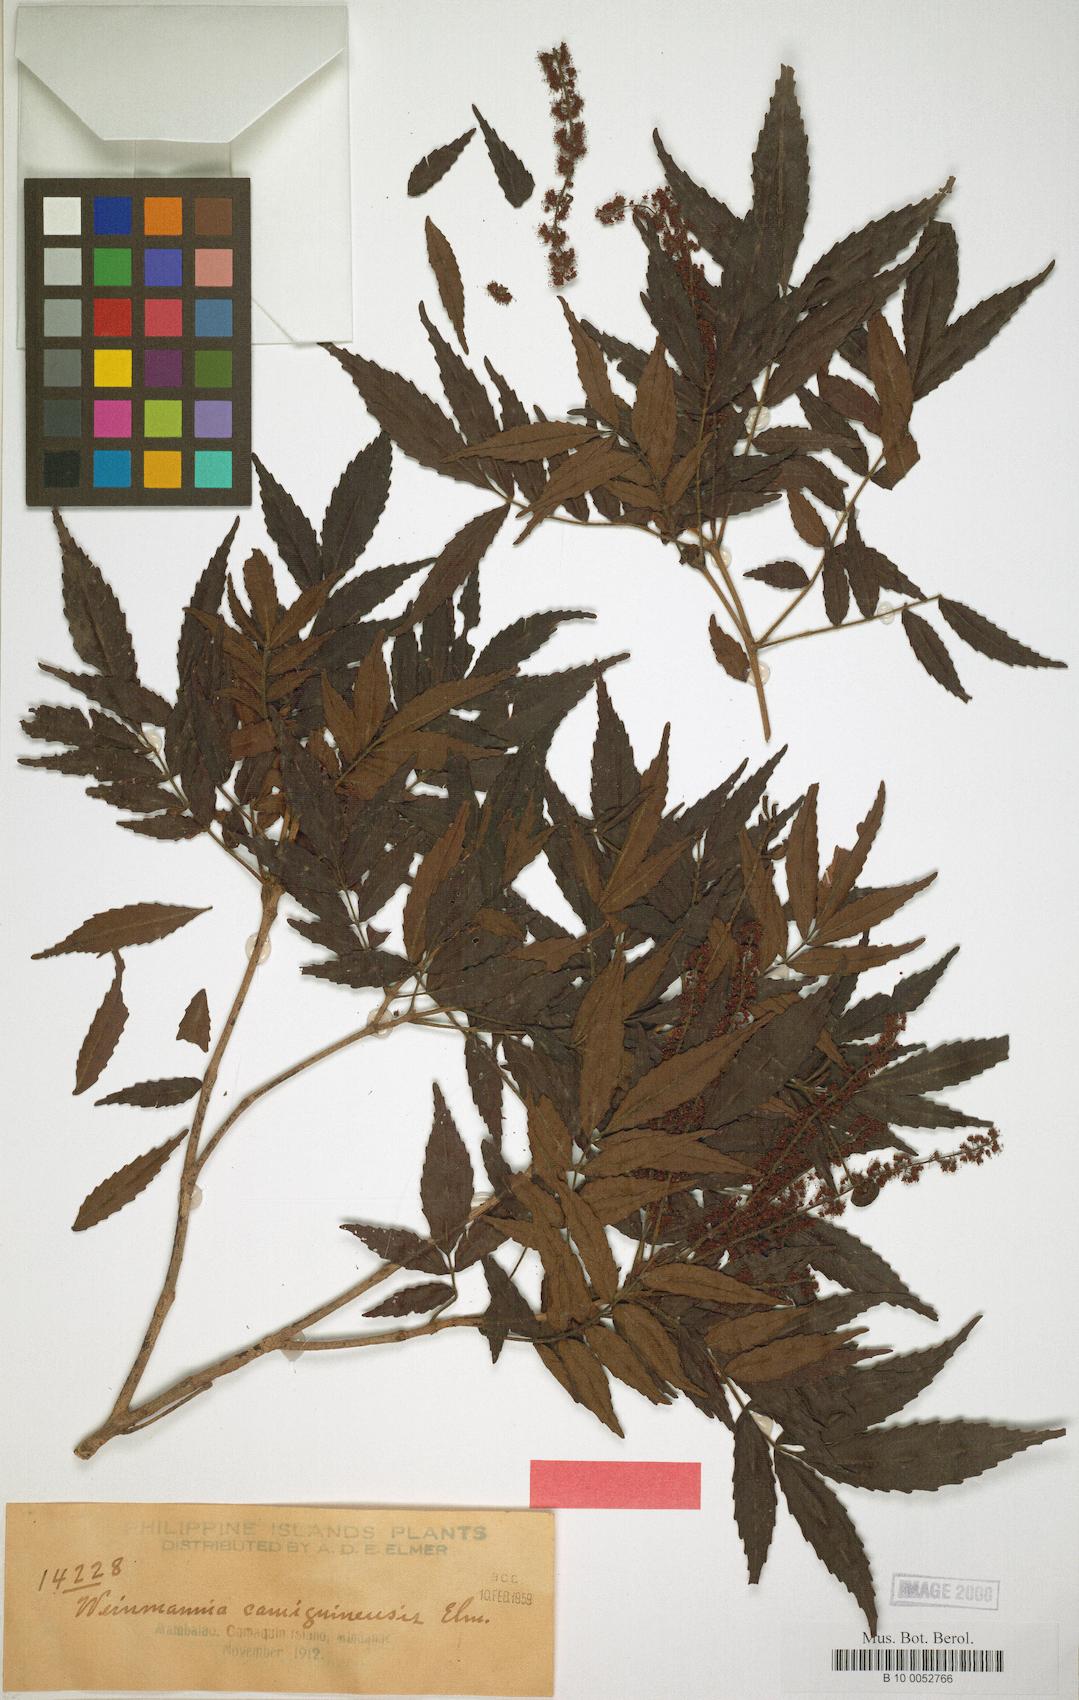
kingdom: Plantae
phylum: Tracheophyta
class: Magnoliopsida
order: Oxalidales
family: Cunoniaceae
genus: Pterophylla
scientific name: Pterophylla hutchinsonii
